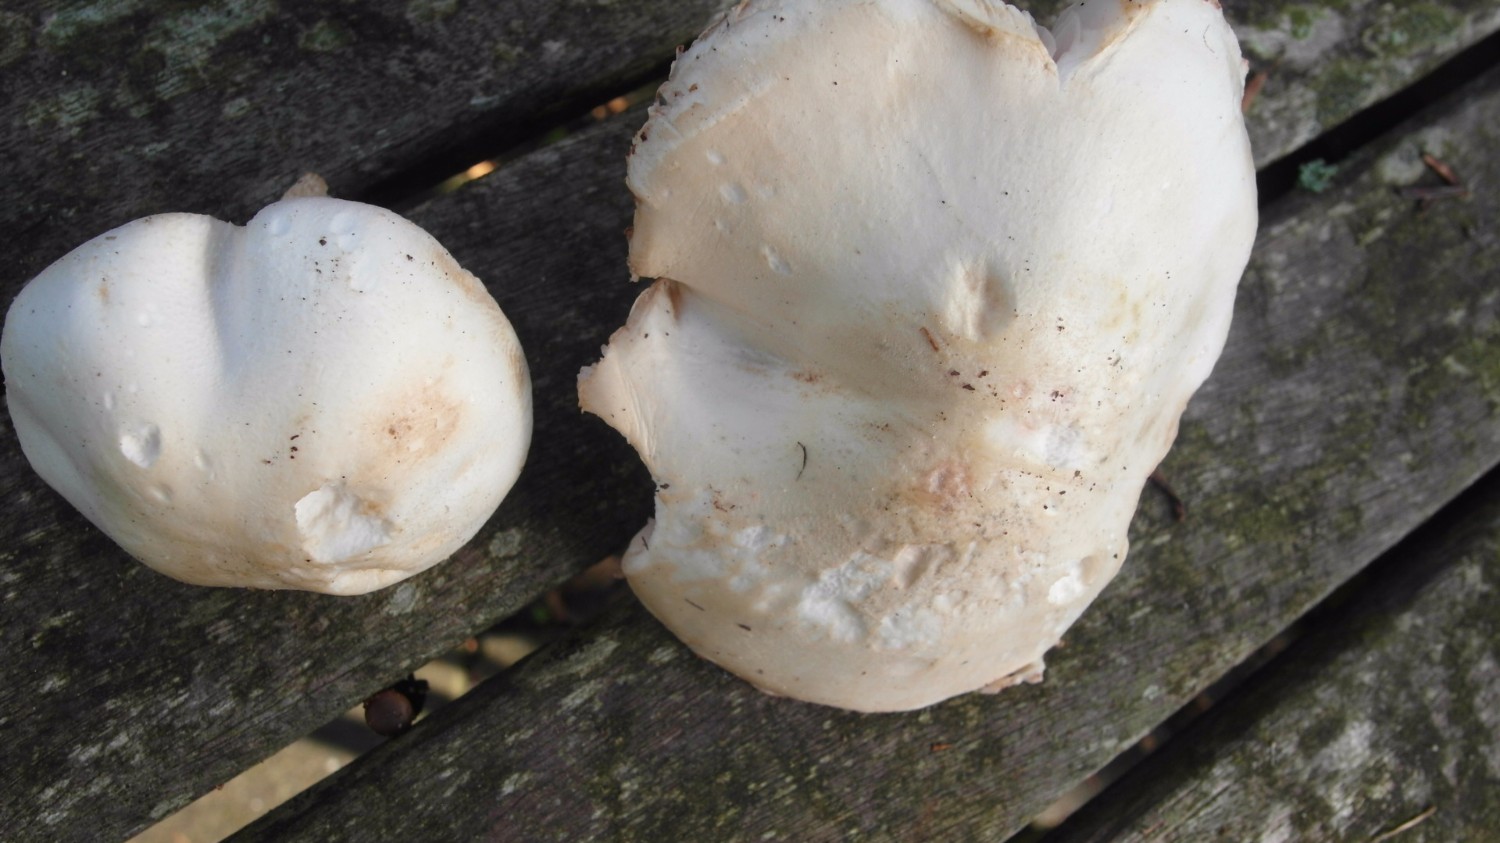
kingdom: Fungi
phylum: Basidiomycota
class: Agaricomycetes
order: Agaricales
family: Agaricaceae
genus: Leucoagaricus
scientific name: Leucoagaricus leucothites
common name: rosabladet silkehat
